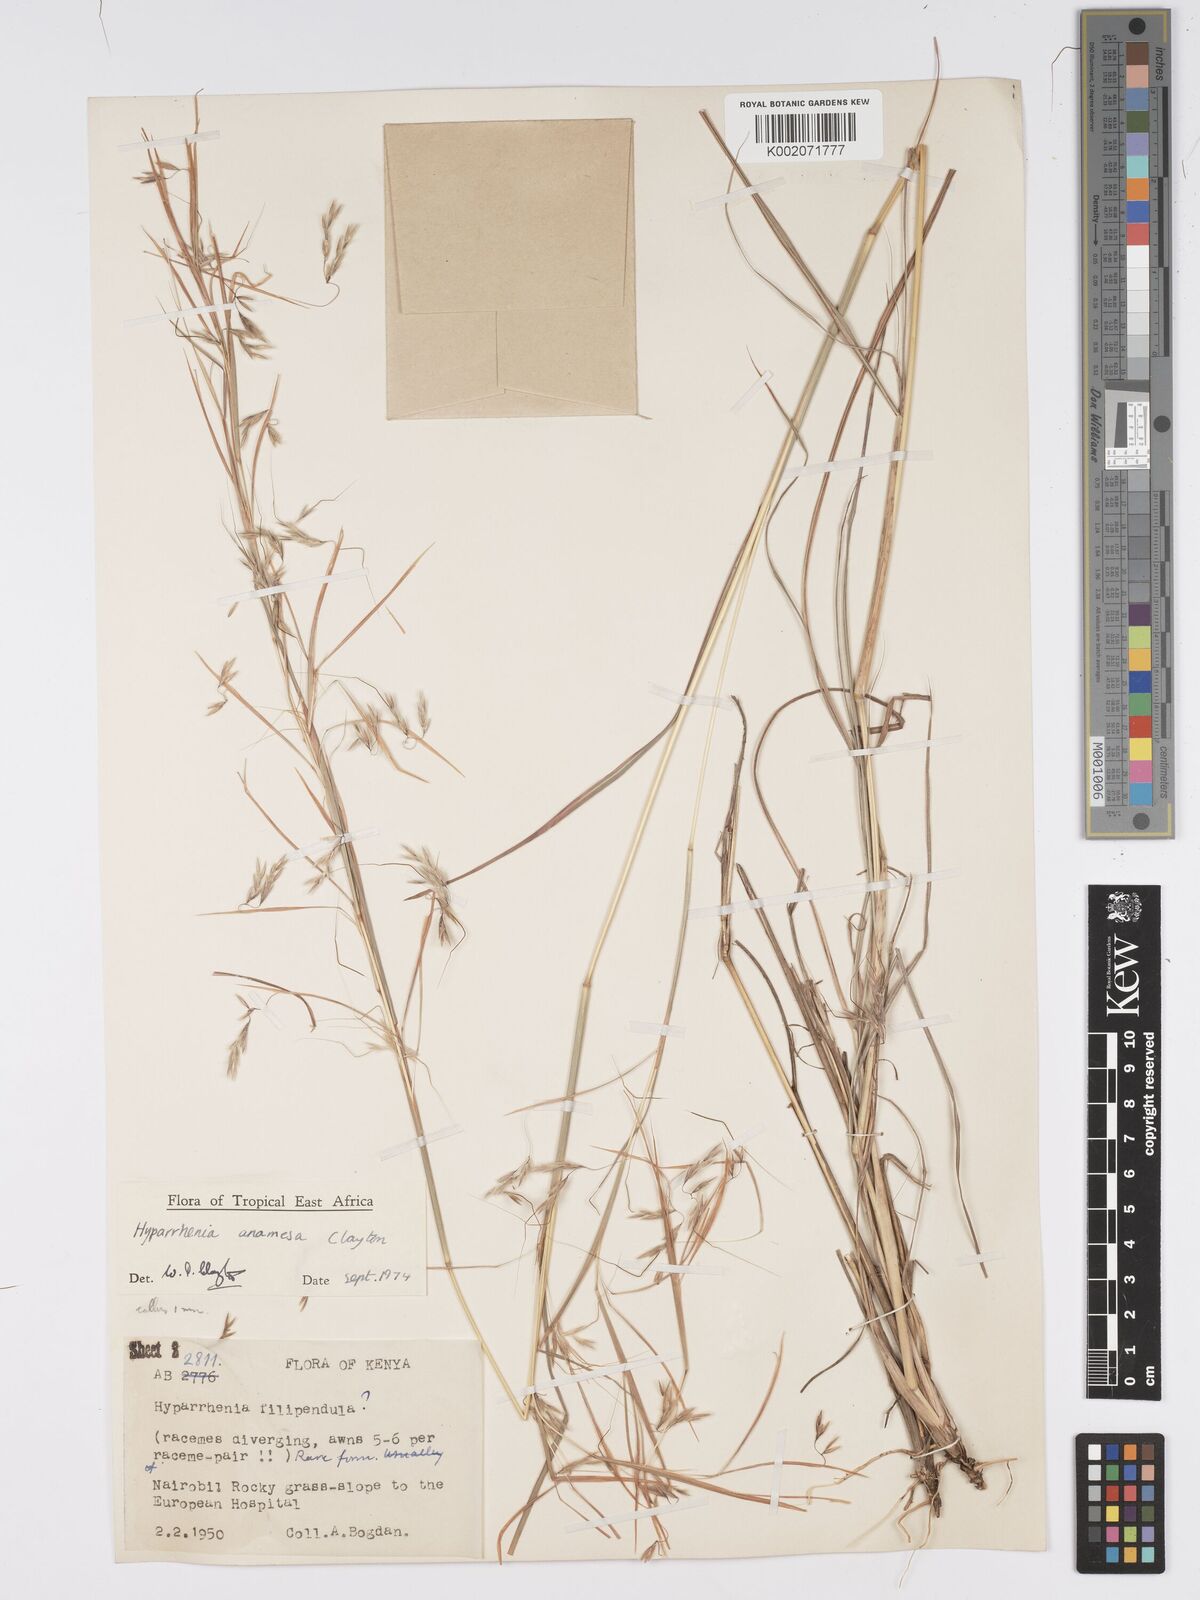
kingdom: Plantae
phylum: Tracheophyta
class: Liliopsida
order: Poales
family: Poaceae
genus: Hyparrhenia
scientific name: Hyparrhenia anamesa
